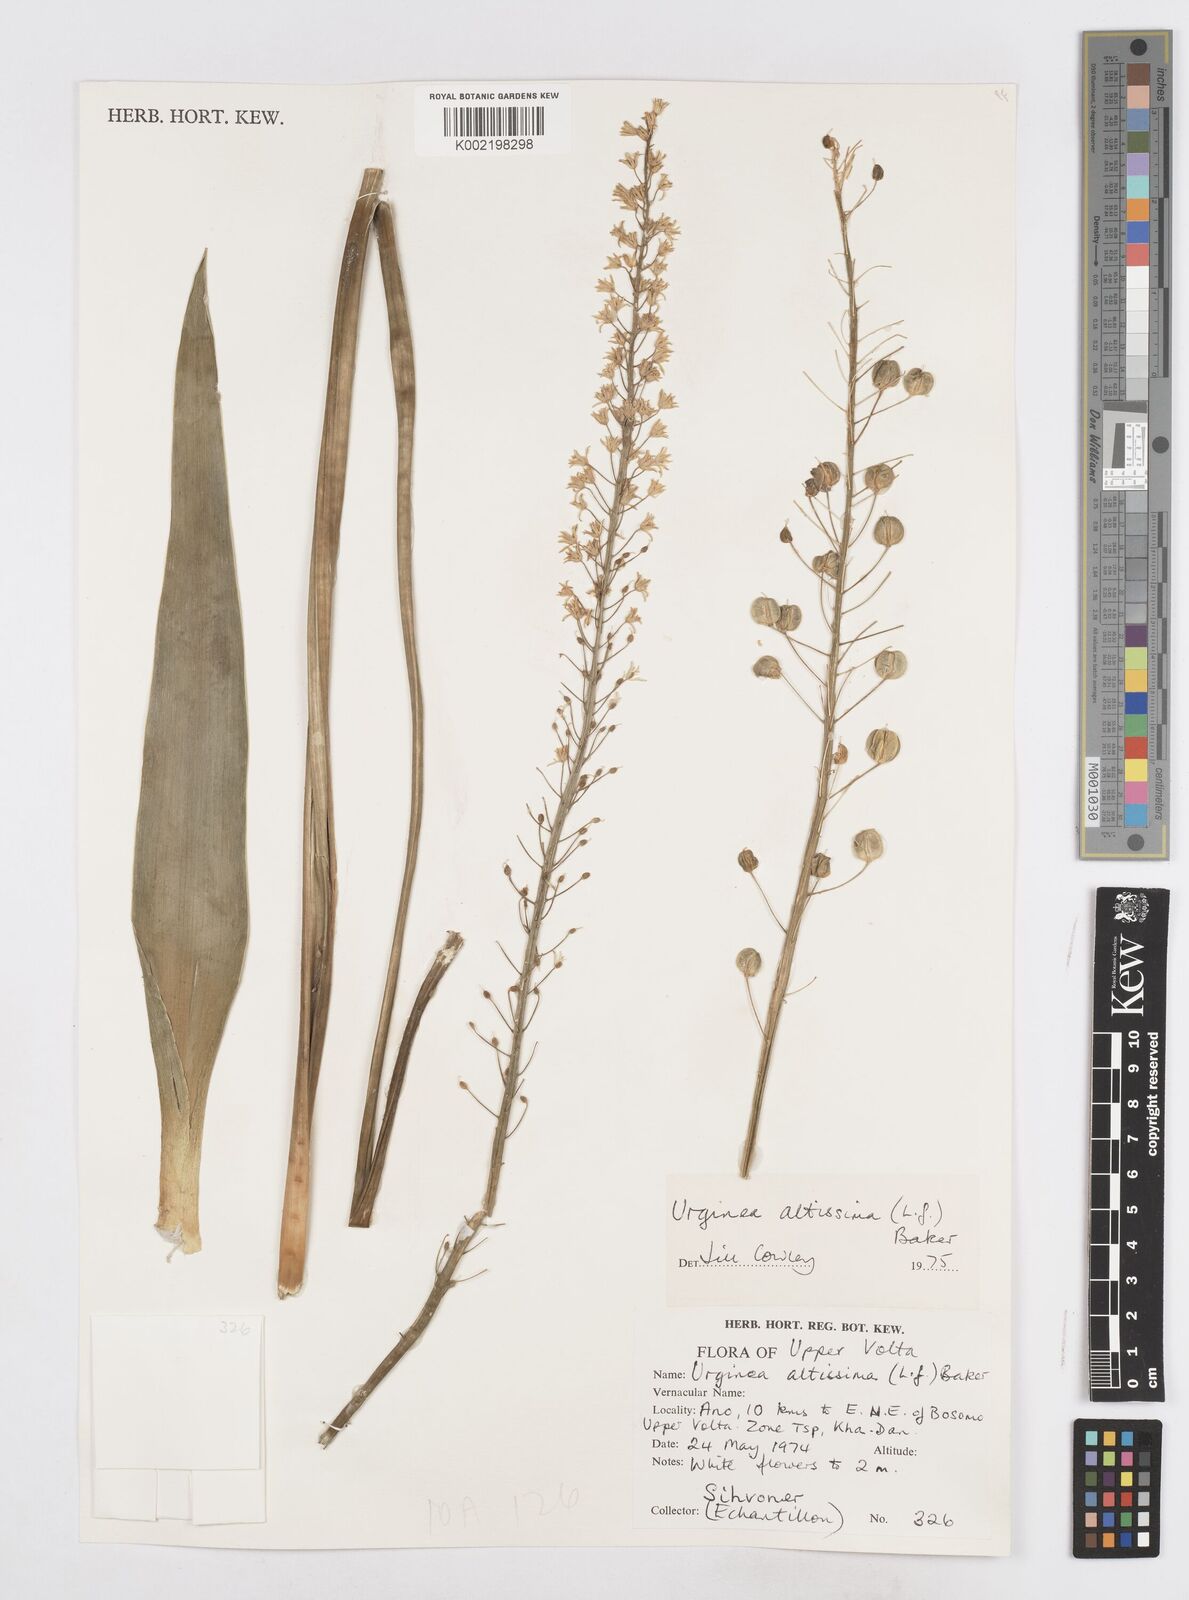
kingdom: Plantae
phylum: Tracheophyta
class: Liliopsida
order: Asparagales
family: Asparagaceae
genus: Drimia
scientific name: Drimia altissima
